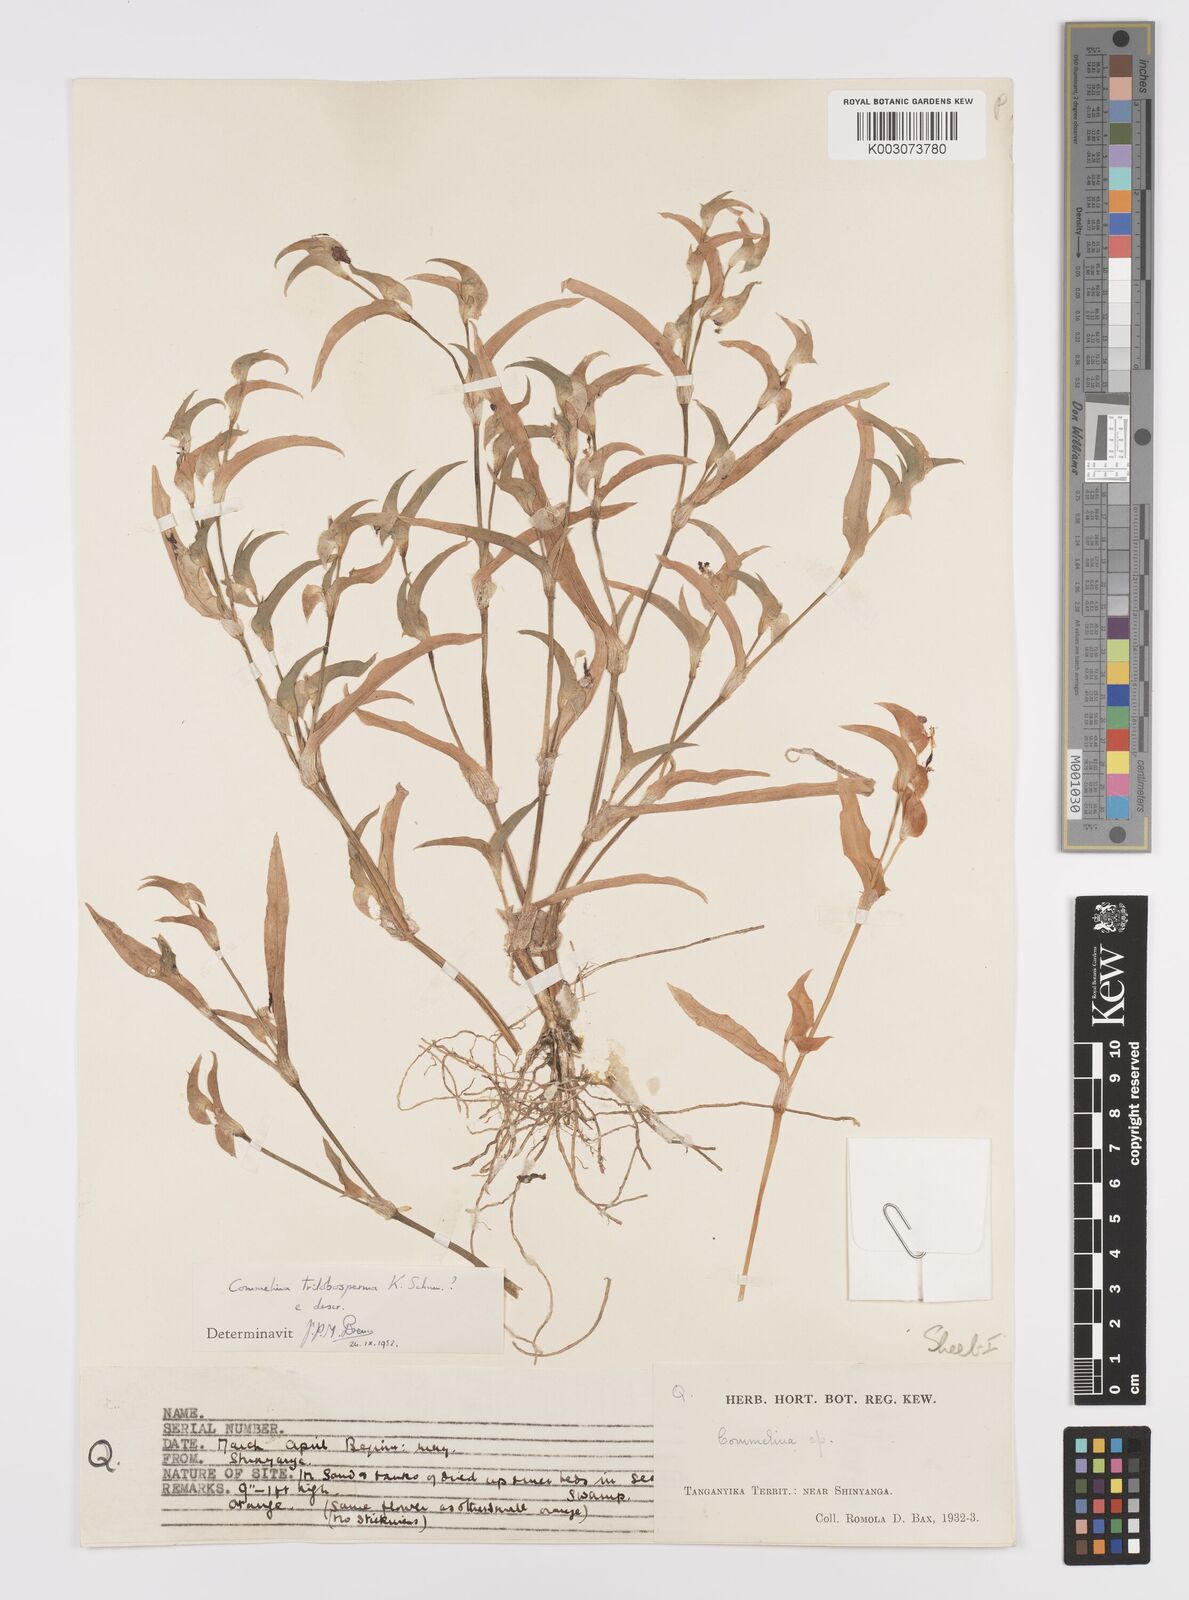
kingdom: Plantae
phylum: Tracheophyta
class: Liliopsida
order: Commelinales
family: Commelinaceae
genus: Commelina
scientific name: Commelina trilobosperma
